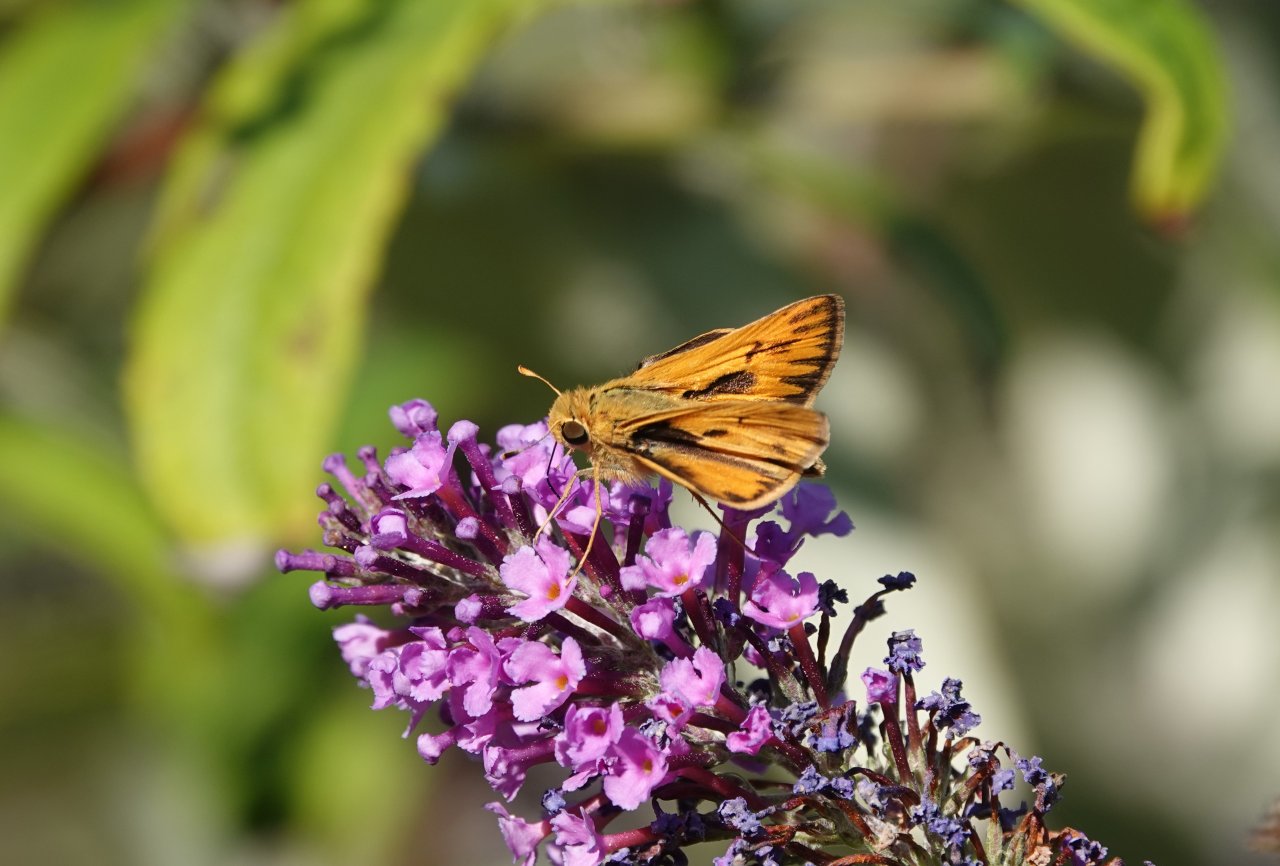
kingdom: Animalia
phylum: Arthropoda
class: Insecta
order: Lepidoptera
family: Hesperiidae
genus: Hylephila
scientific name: Hylephila phyleus
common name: Fiery Skipper
